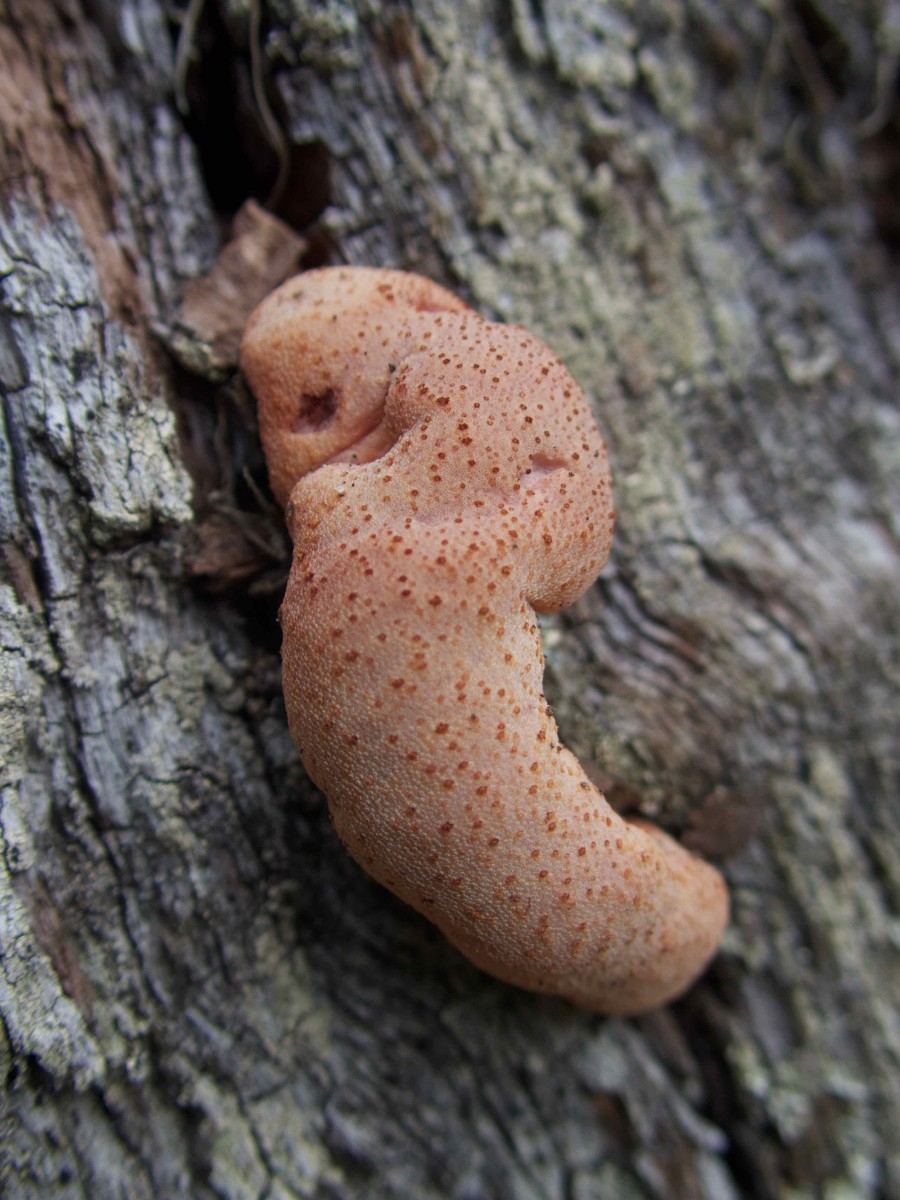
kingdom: Fungi
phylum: Basidiomycota
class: Agaricomycetes
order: Agaricales
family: Fistulinaceae
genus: Fistulina
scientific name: Fistulina hepatica
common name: oksetunge
